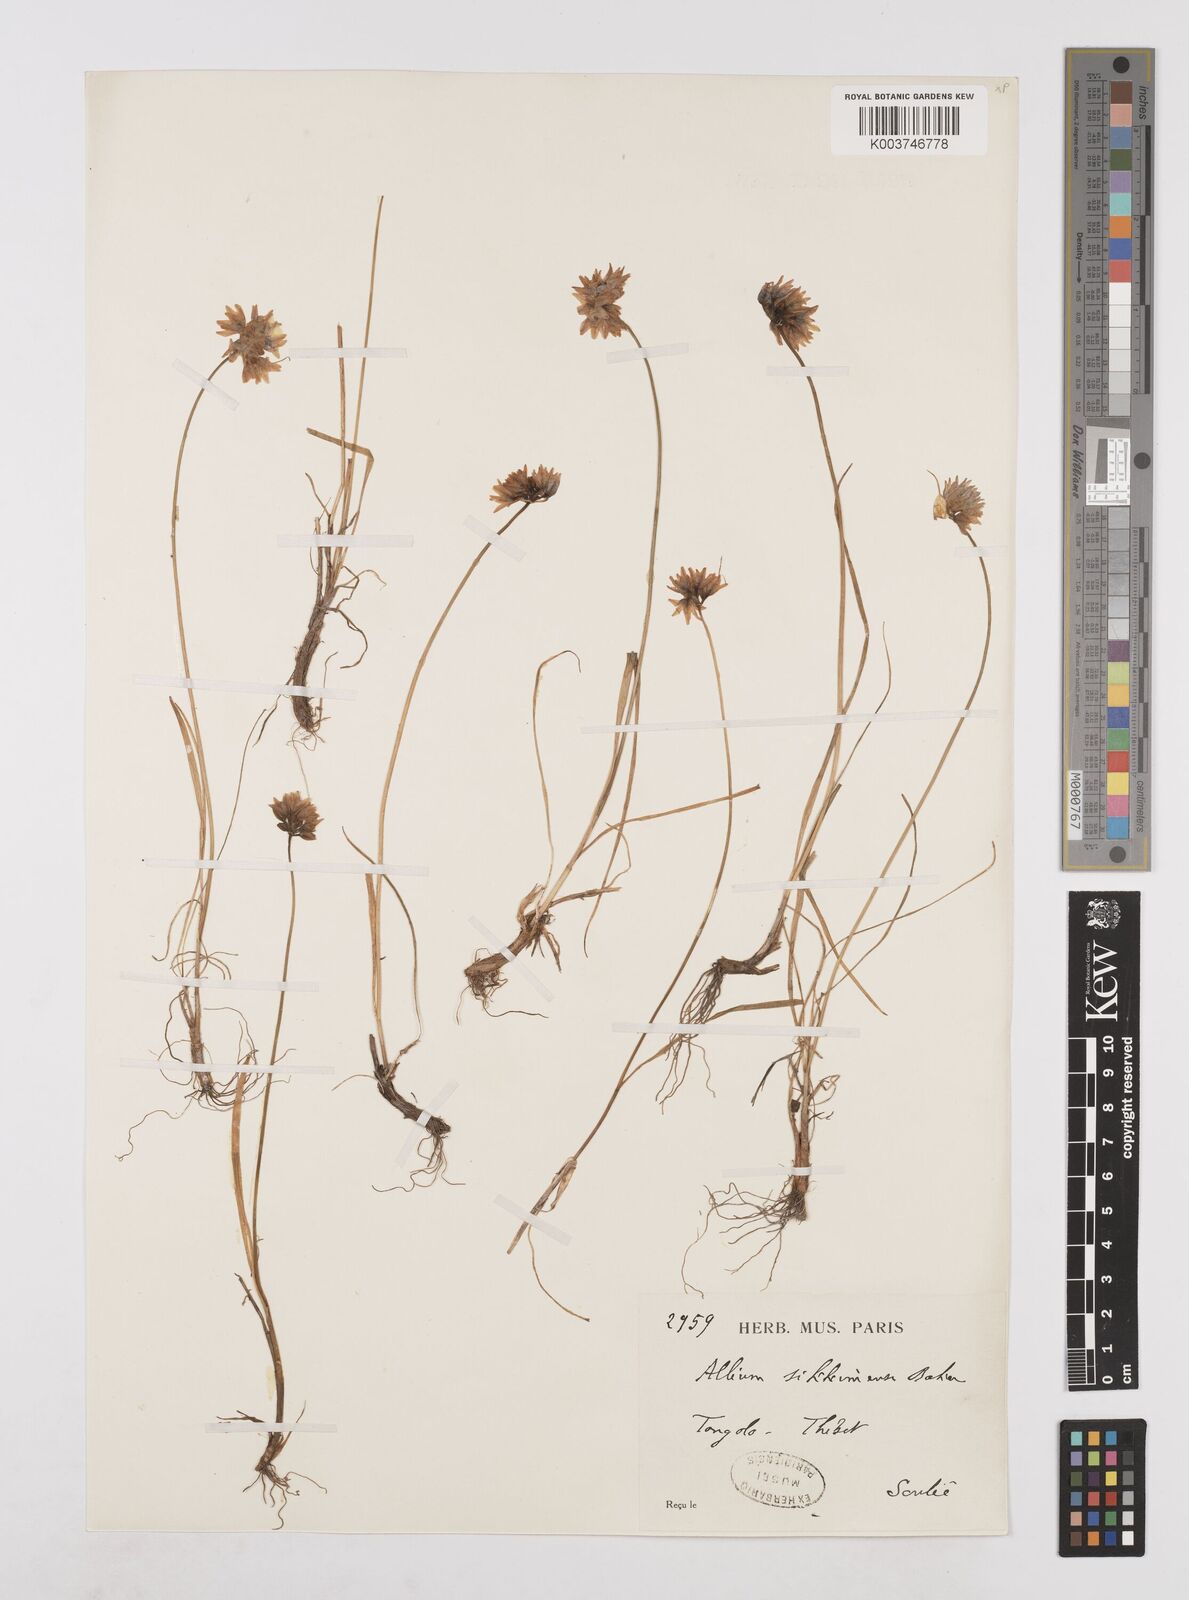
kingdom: Plantae
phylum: Tracheophyta
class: Liliopsida
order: Asparagales
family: Amaryllidaceae
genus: Allium
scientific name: Allium sikkimense
